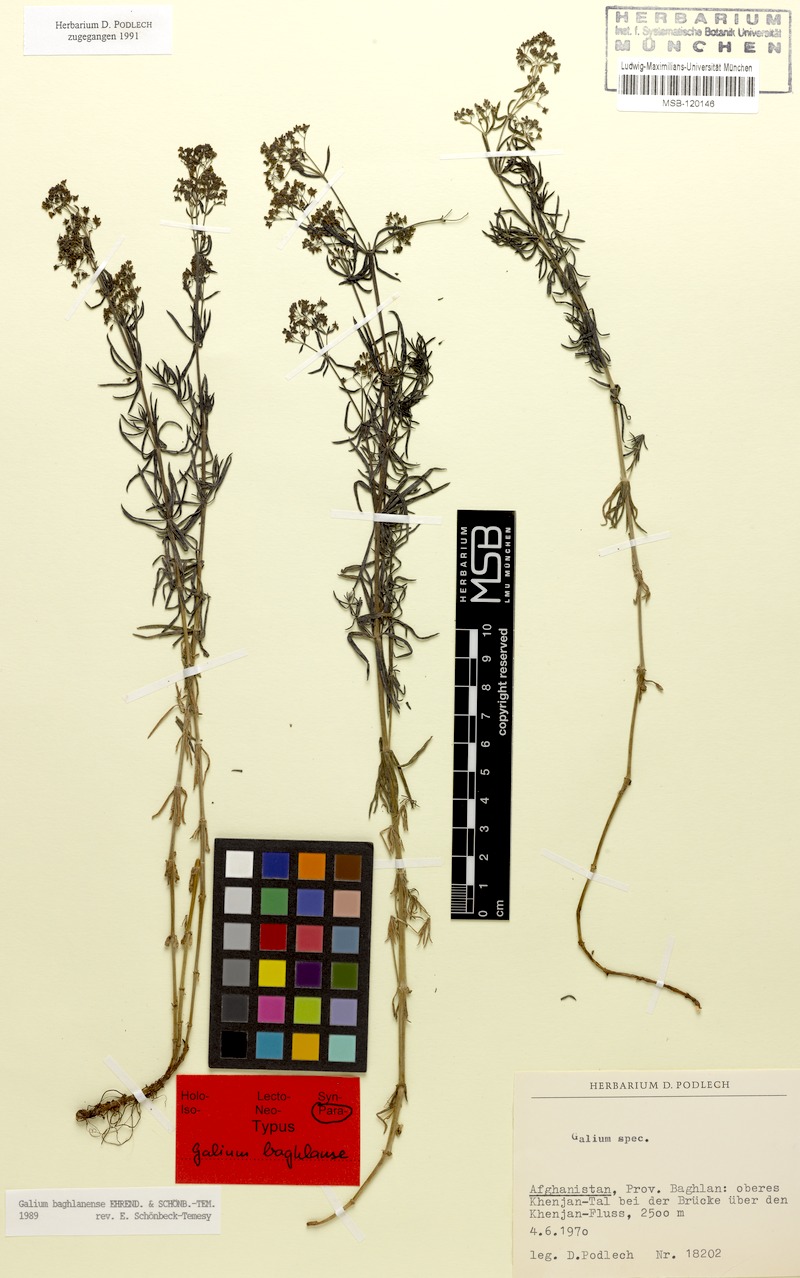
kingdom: Plantae
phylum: Tracheophyta
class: Magnoliopsida
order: Gentianales
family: Rubiaceae
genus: Galium
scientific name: Galium baghlanense
